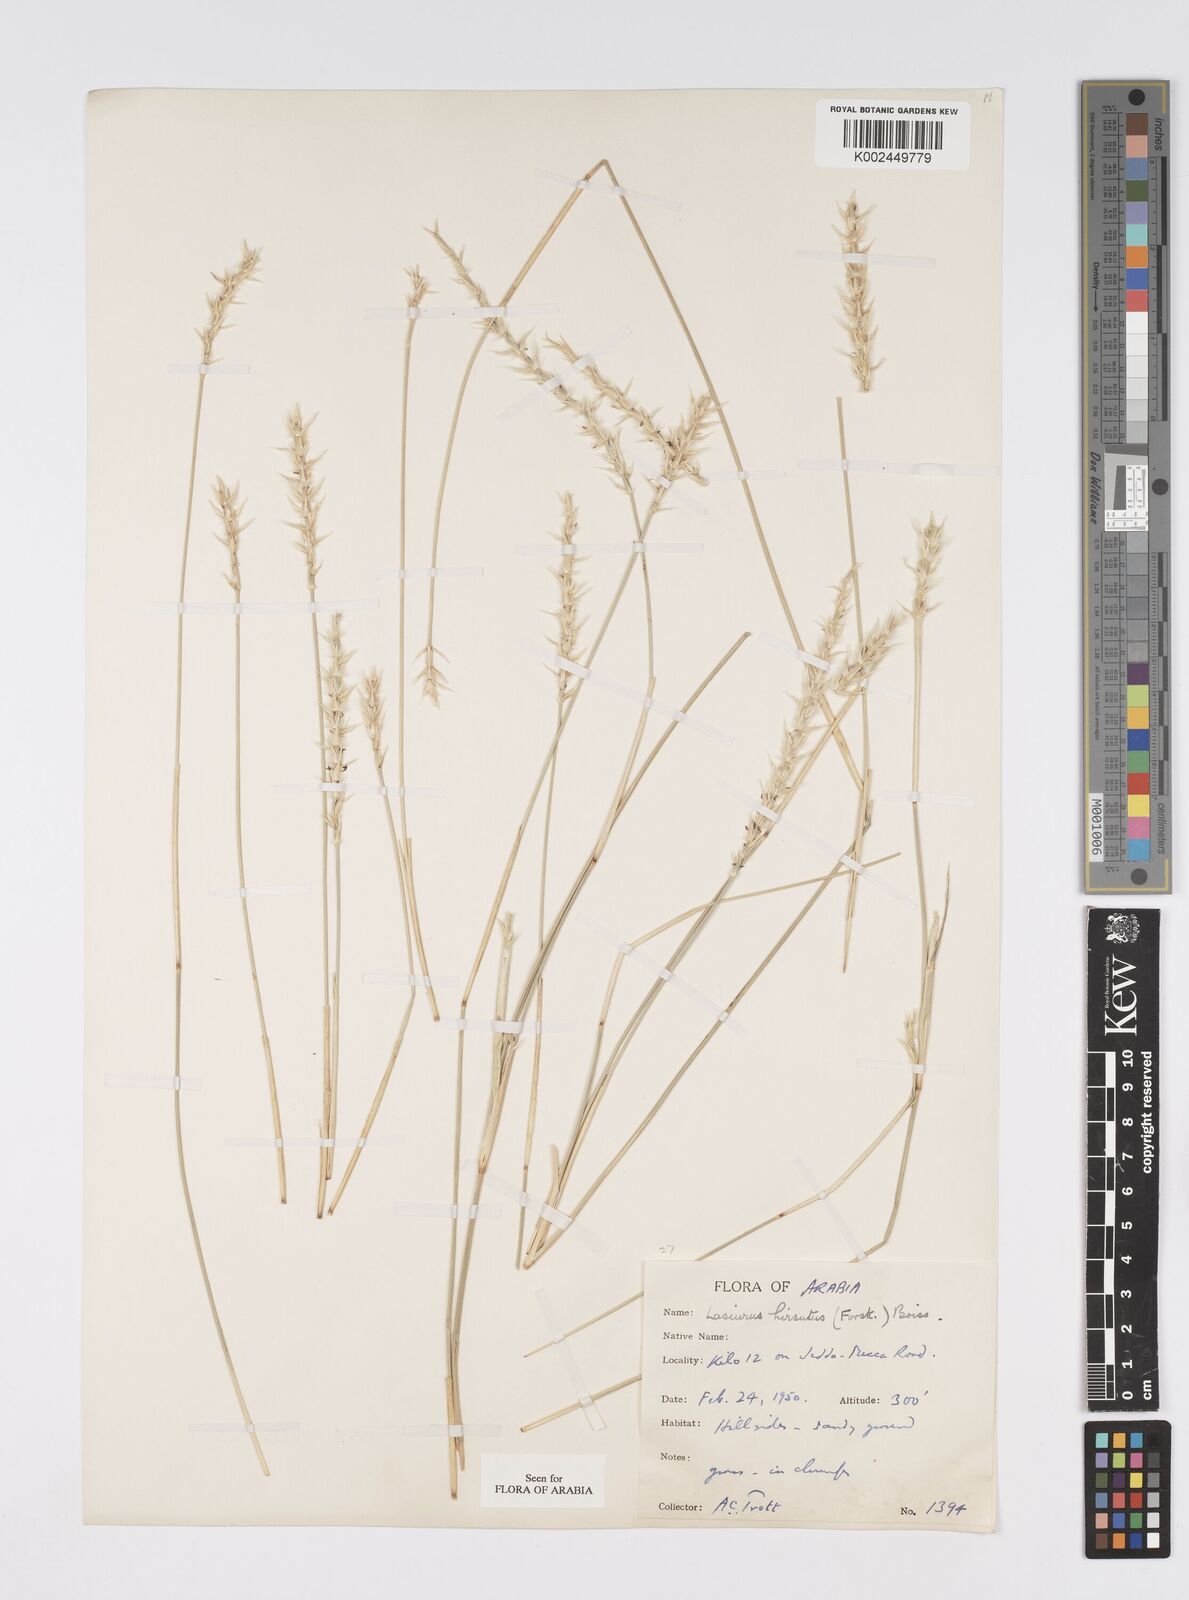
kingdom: Plantae
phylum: Tracheophyta
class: Liliopsida
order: Poales
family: Poaceae
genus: Lasiurus
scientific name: Lasiurus scindicus
